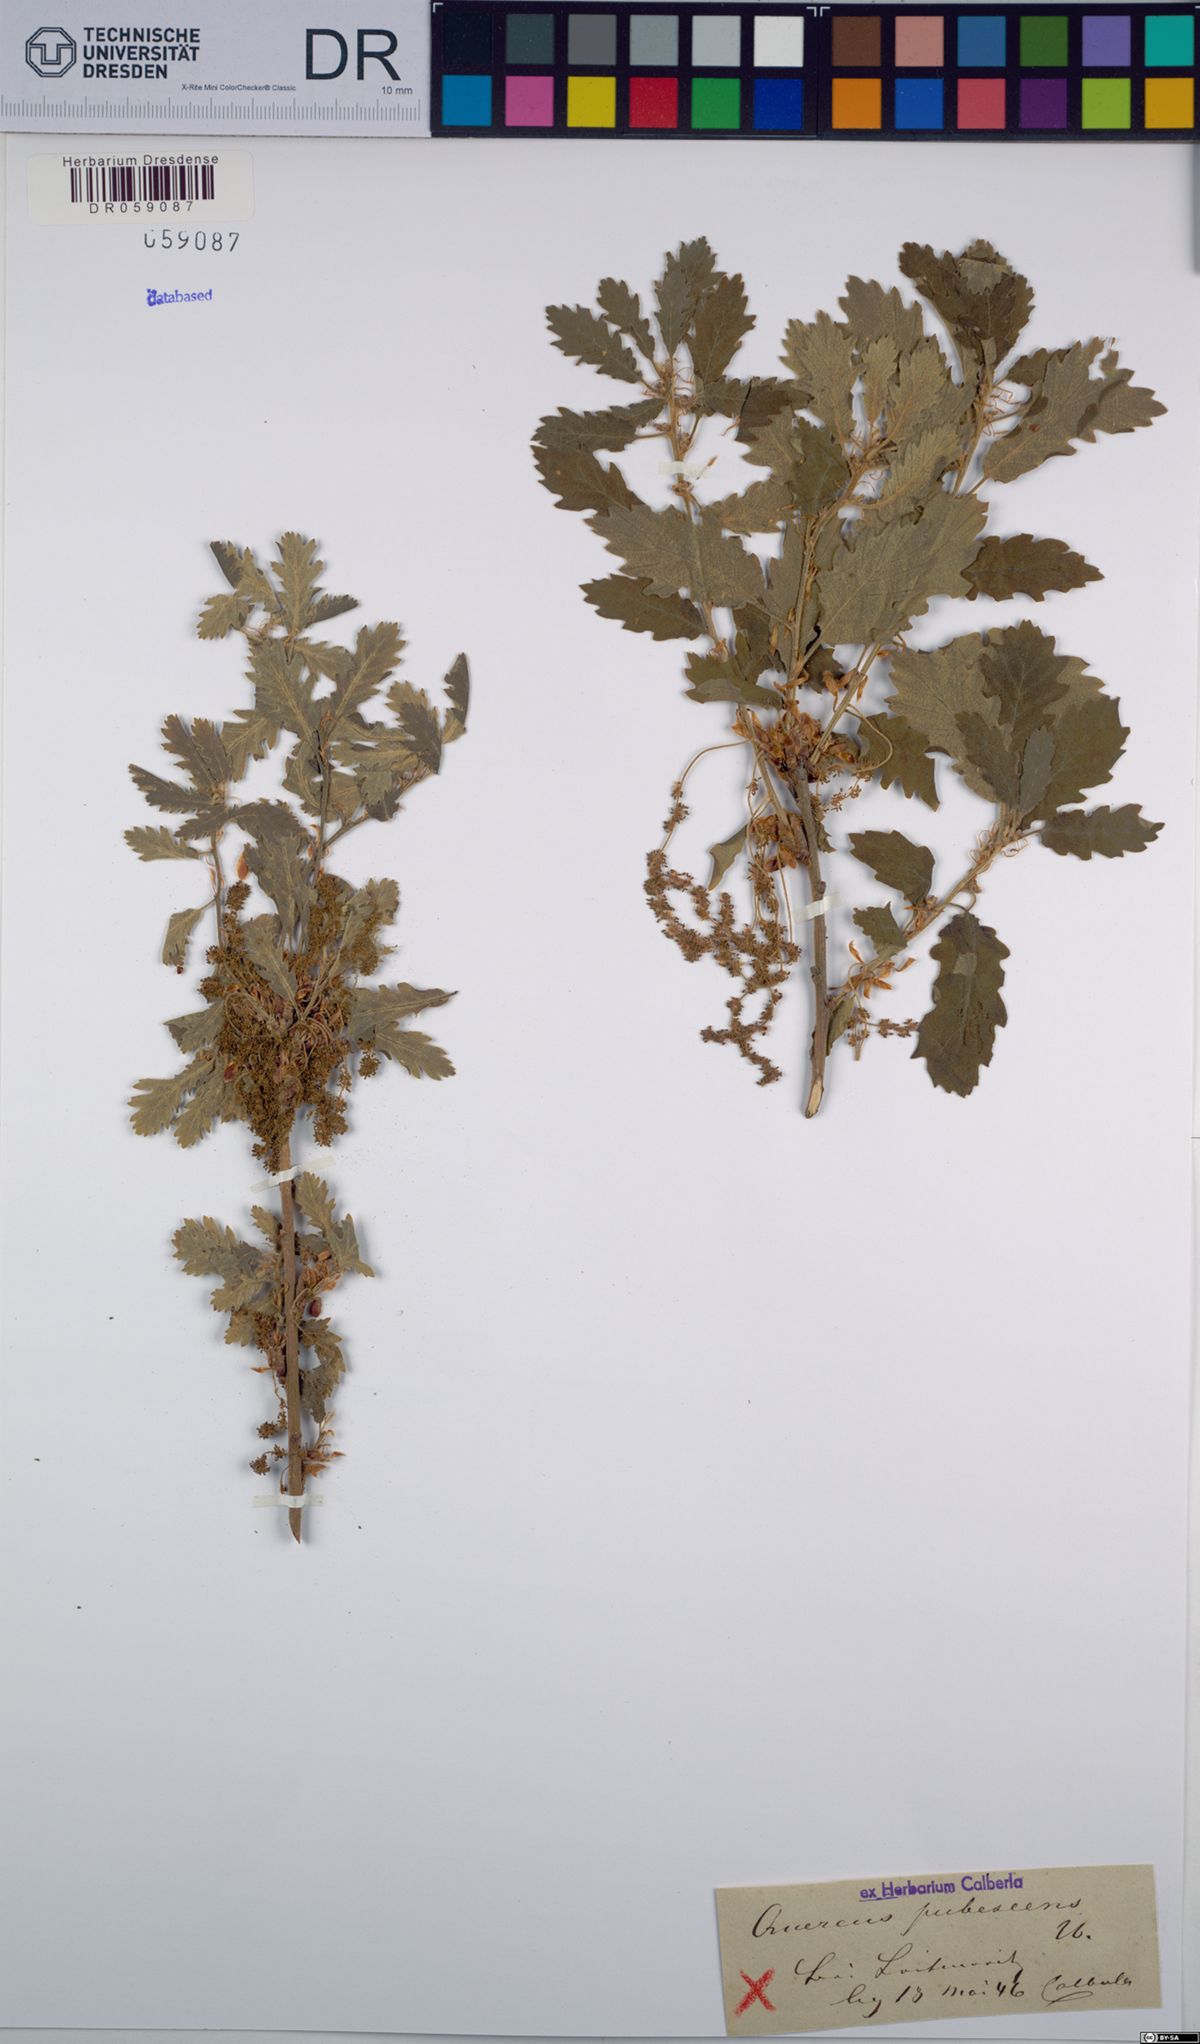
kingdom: Plantae
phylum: Tracheophyta
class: Magnoliopsida
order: Fagales
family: Fagaceae
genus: Quercus
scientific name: Quercus pubescens
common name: Downy oak
